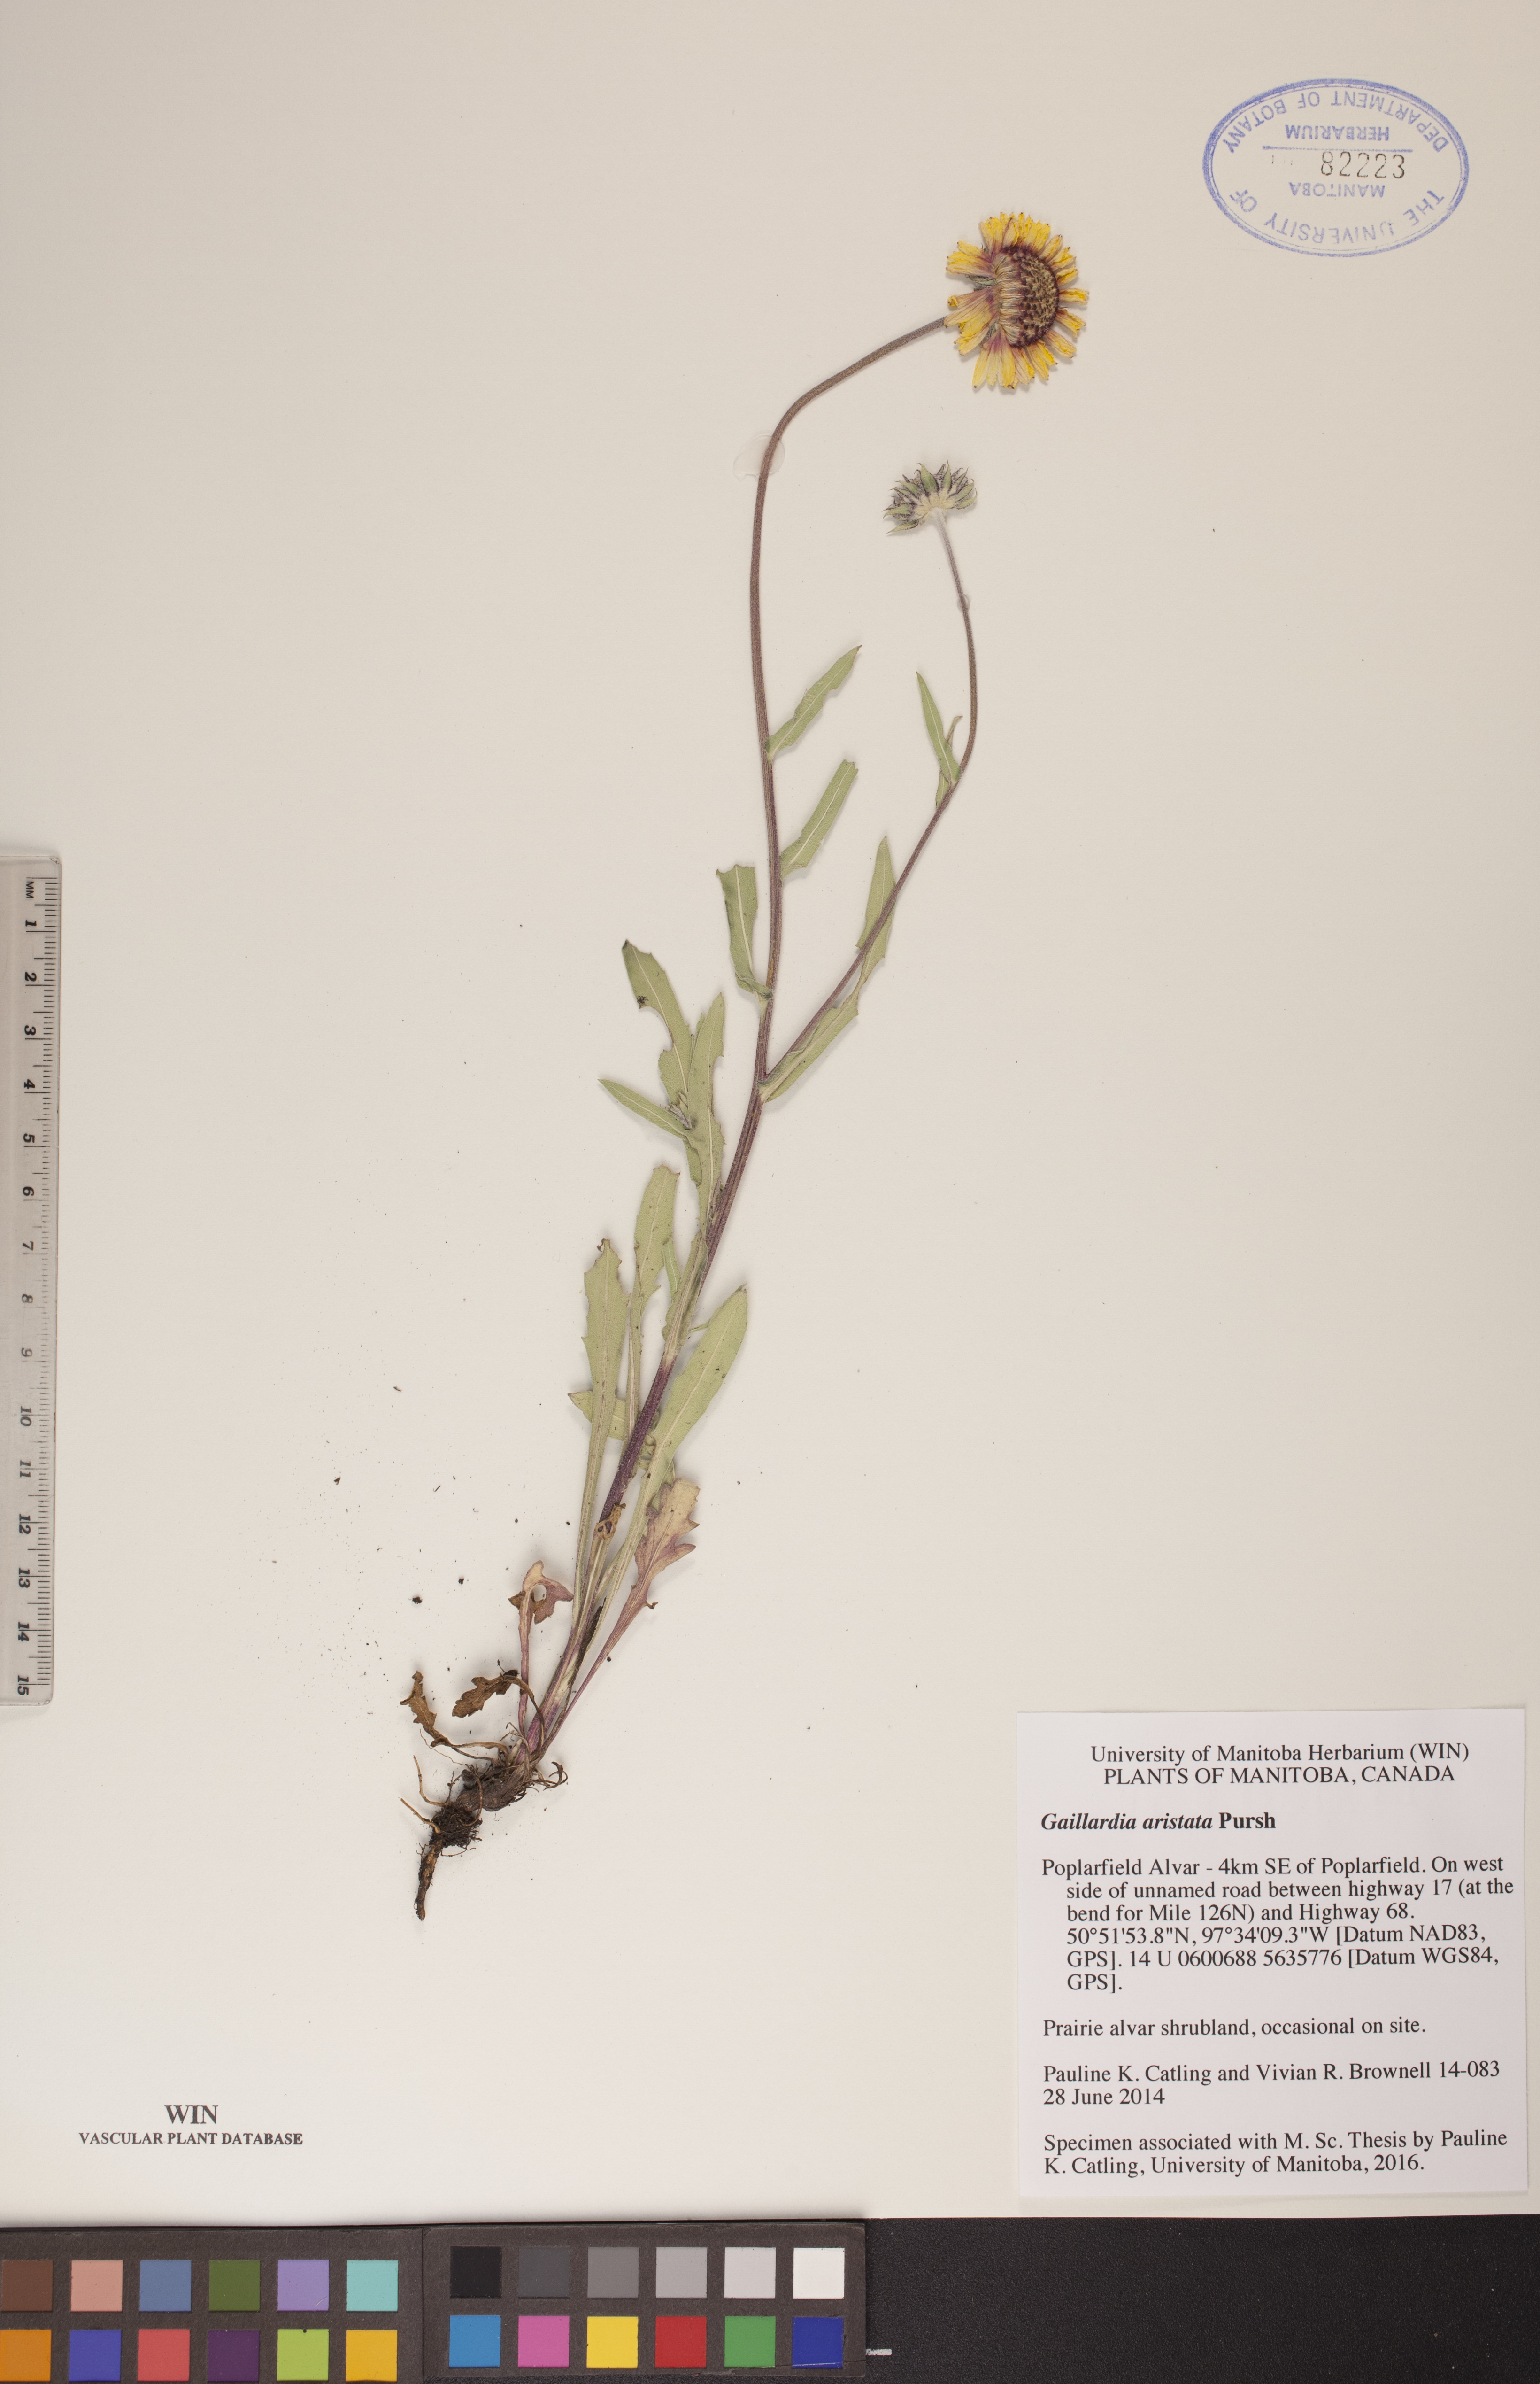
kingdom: Plantae
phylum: Tracheophyta
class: Magnoliopsida
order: Asterales
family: Asteraceae
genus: Gaillardia
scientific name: Gaillardia aristata
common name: Blanket-flower
